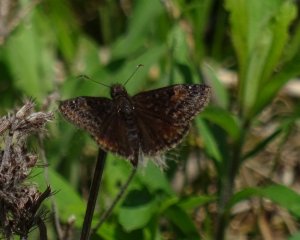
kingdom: Animalia
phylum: Arthropoda
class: Insecta
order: Lepidoptera
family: Hesperiidae
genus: Gesta
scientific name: Gesta
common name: Wild Indigo Duskywing
